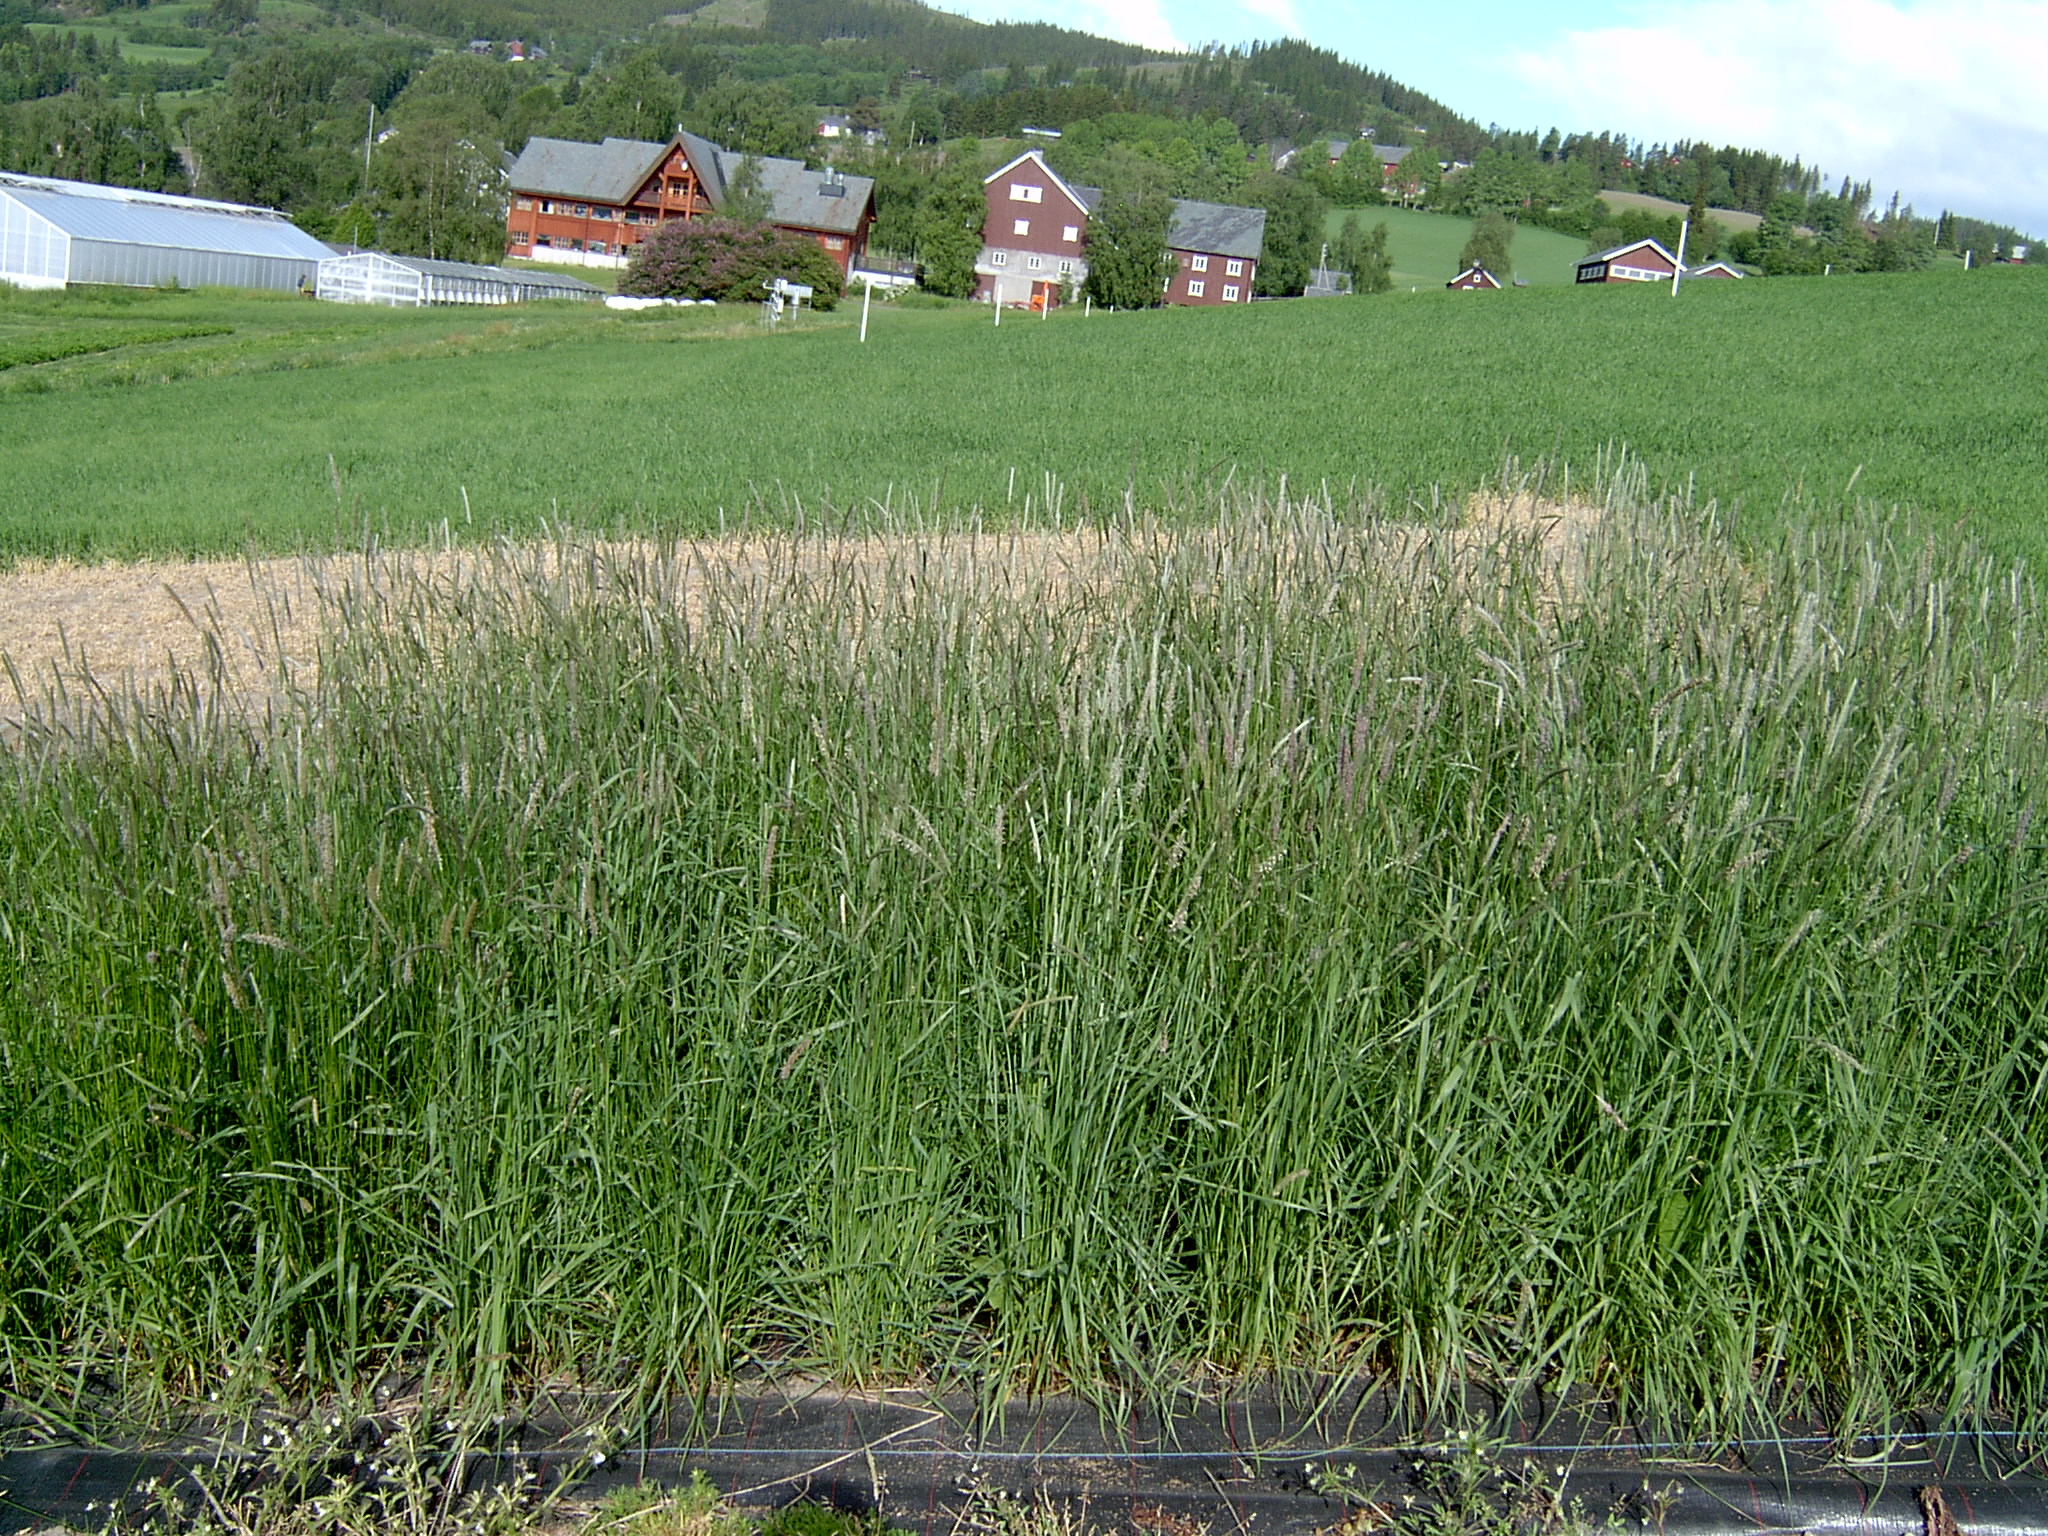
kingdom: Plantae
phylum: Tracheophyta
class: Liliopsida
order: Poales
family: Poaceae
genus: Alopecurus
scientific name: Alopecurus pratensis
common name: Meadow foxtail
